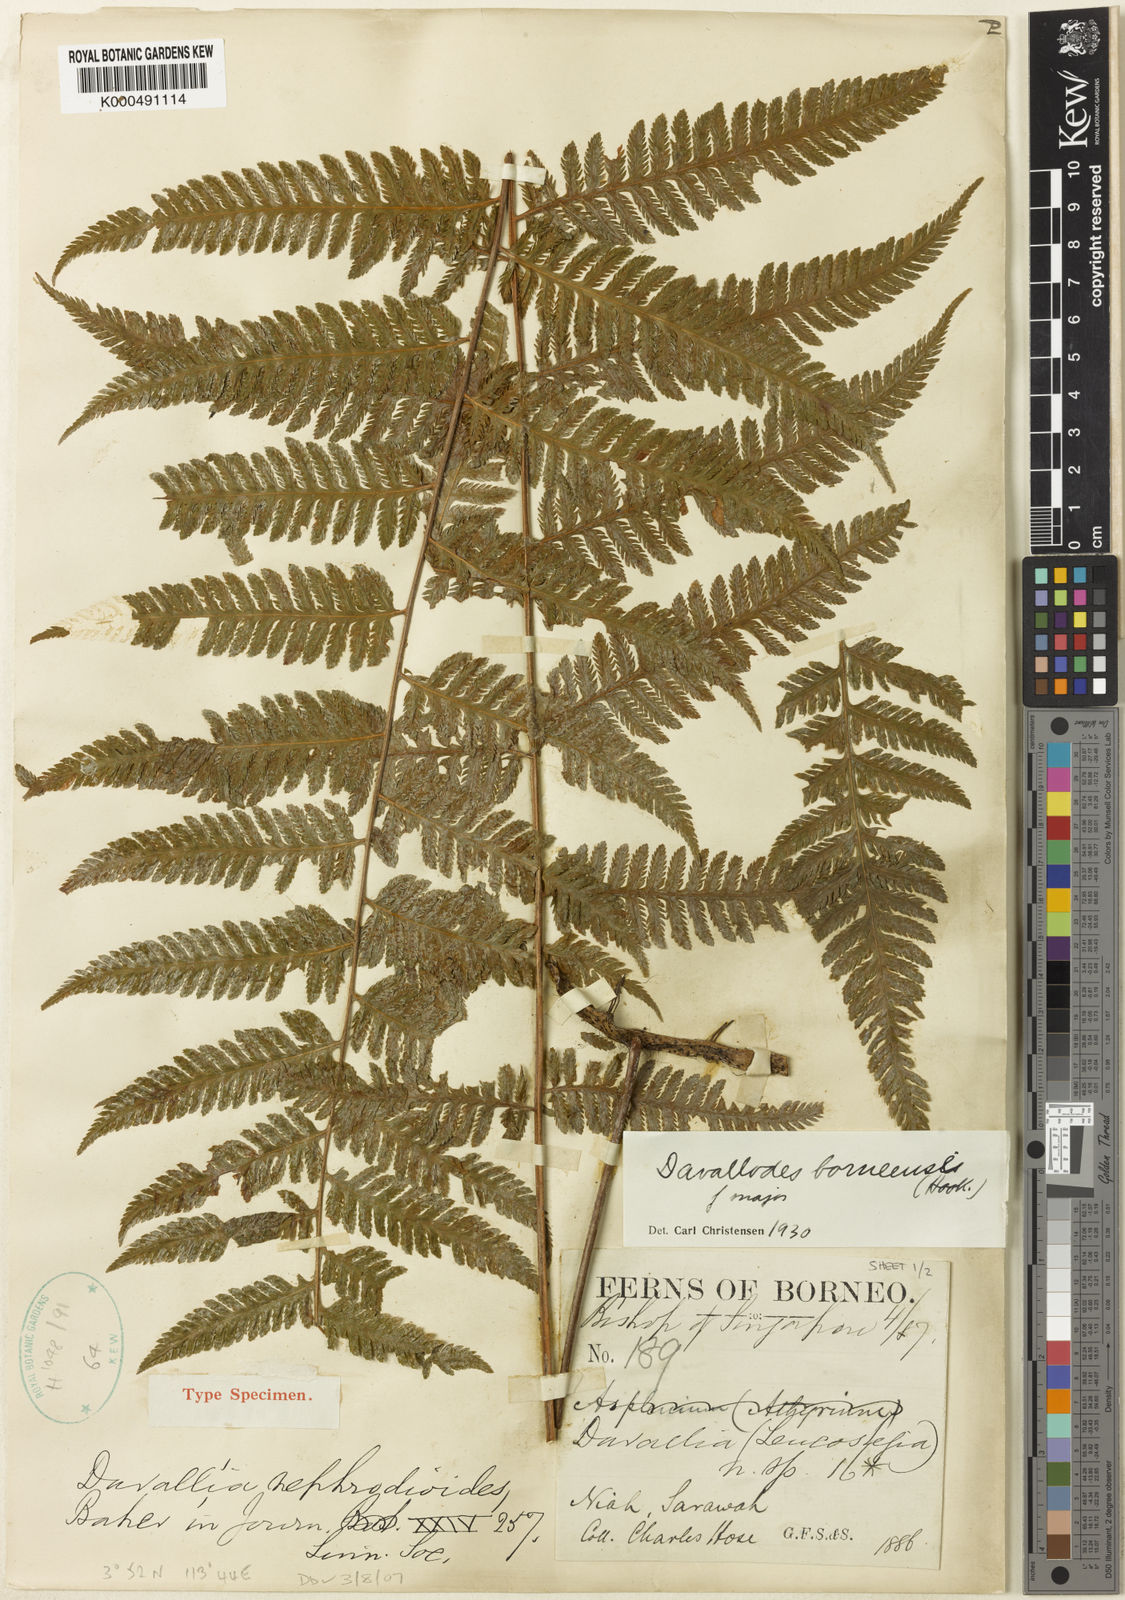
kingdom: Plantae
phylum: Tracheophyta
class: Polypodiopsida
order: Polypodiales
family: Davalliaceae
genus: Davallodes
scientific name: Davallodes borneensis
